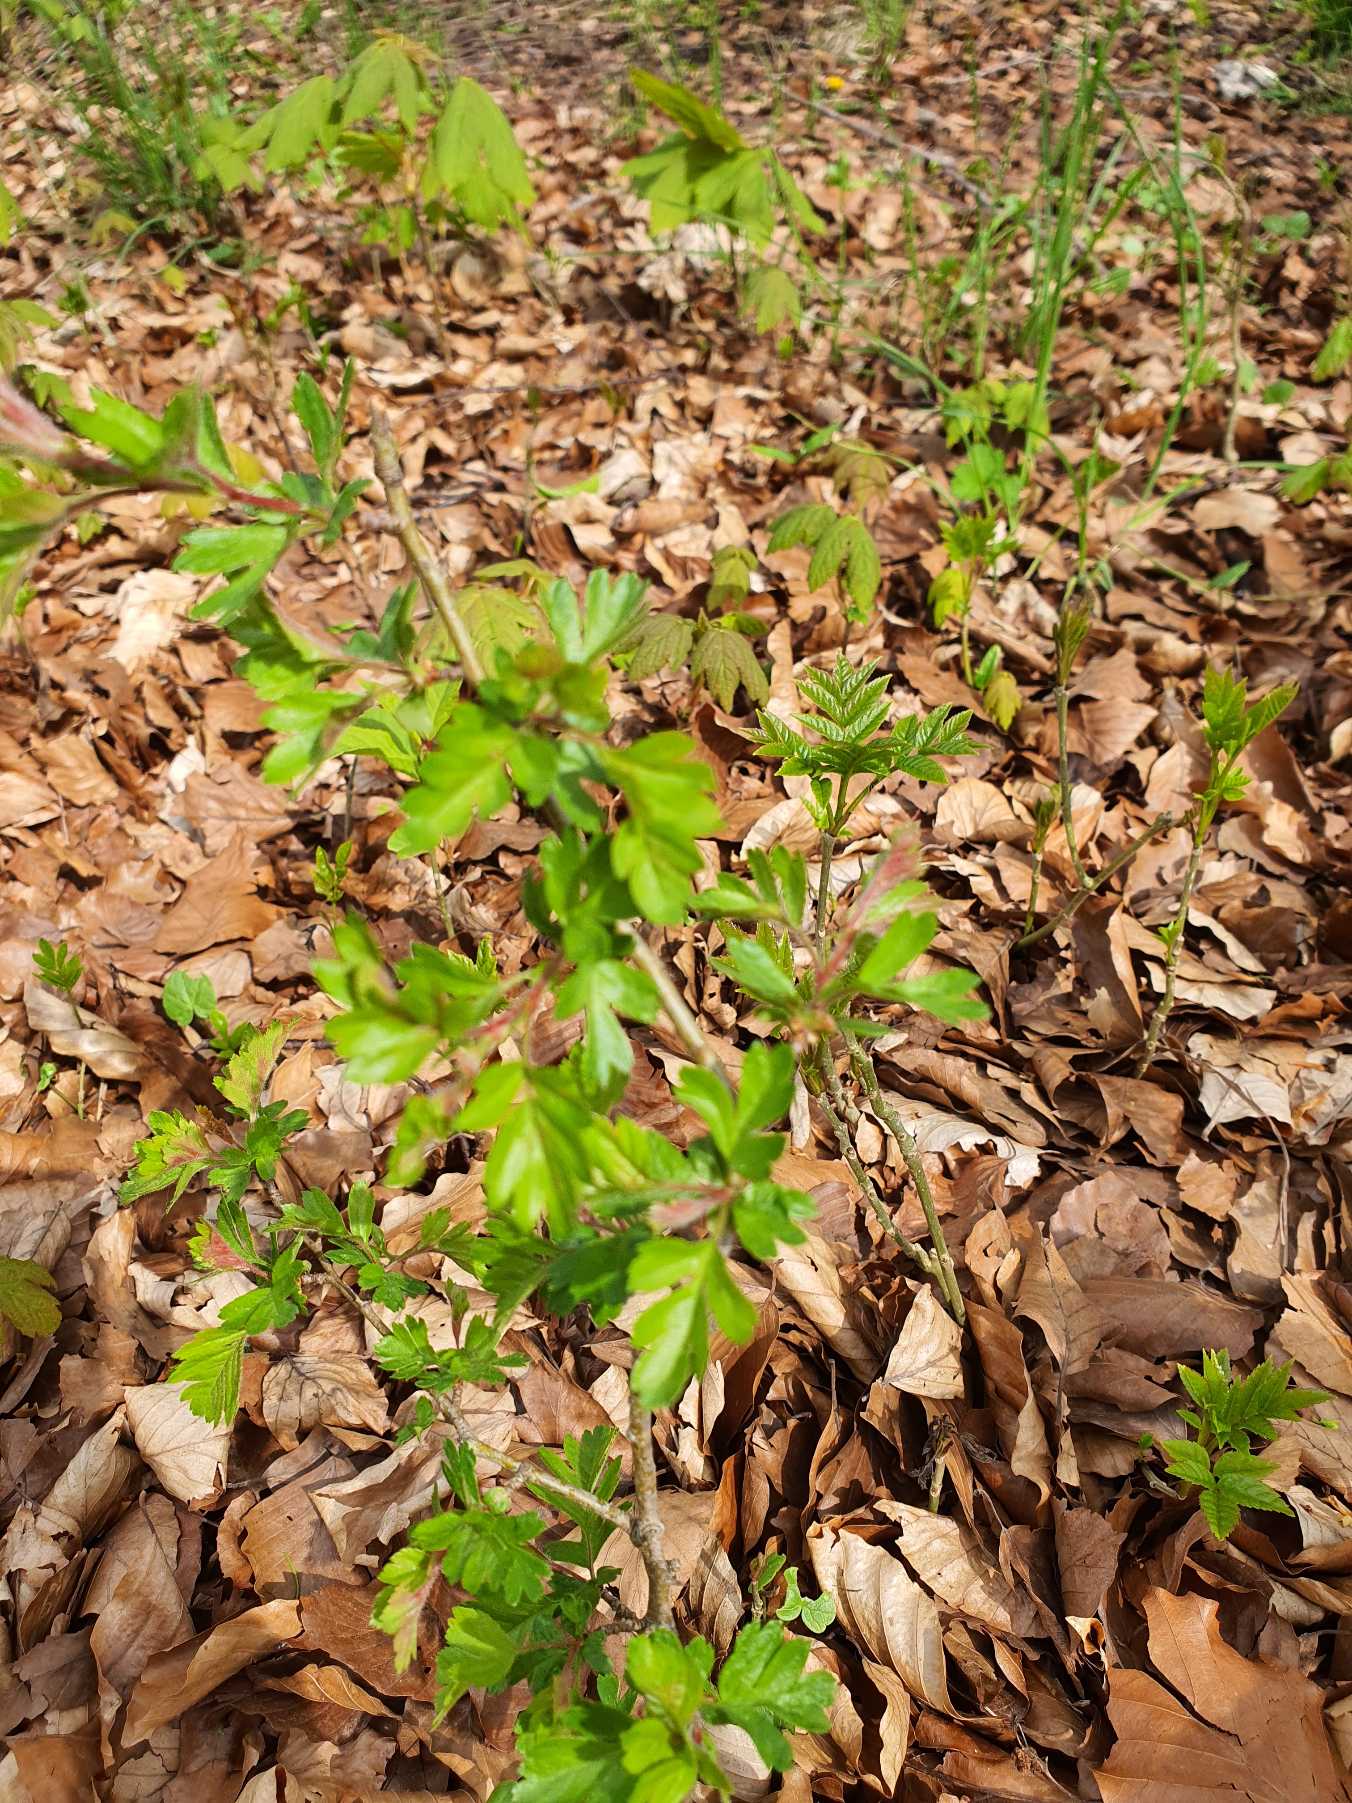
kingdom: Plantae
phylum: Tracheophyta
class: Magnoliopsida
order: Rosales
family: Rosaceae
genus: Crataegus
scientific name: Crataegus monogyna
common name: Engriflet hvidtjørn
